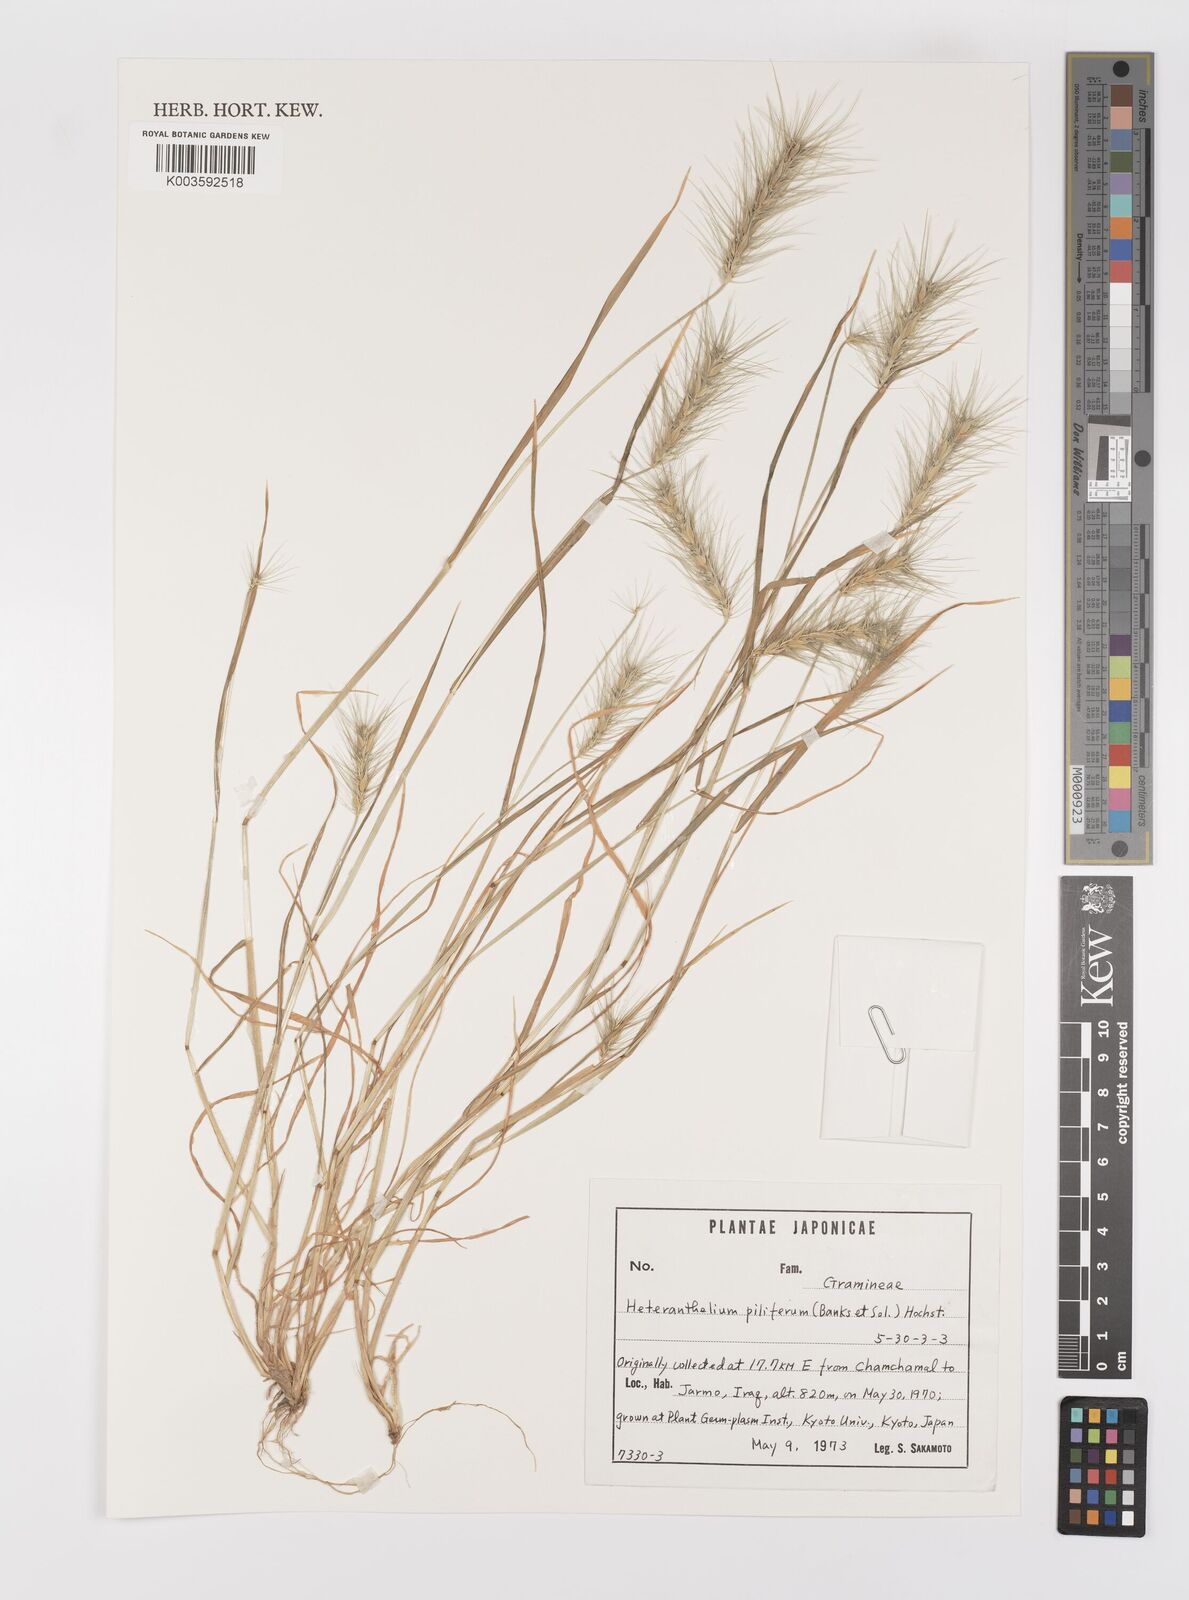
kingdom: Plantae
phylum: Tracheophyta
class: Liliopsida
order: Poales
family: Poaceae
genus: Heteranthelium
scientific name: Heteranthelium piliferum
